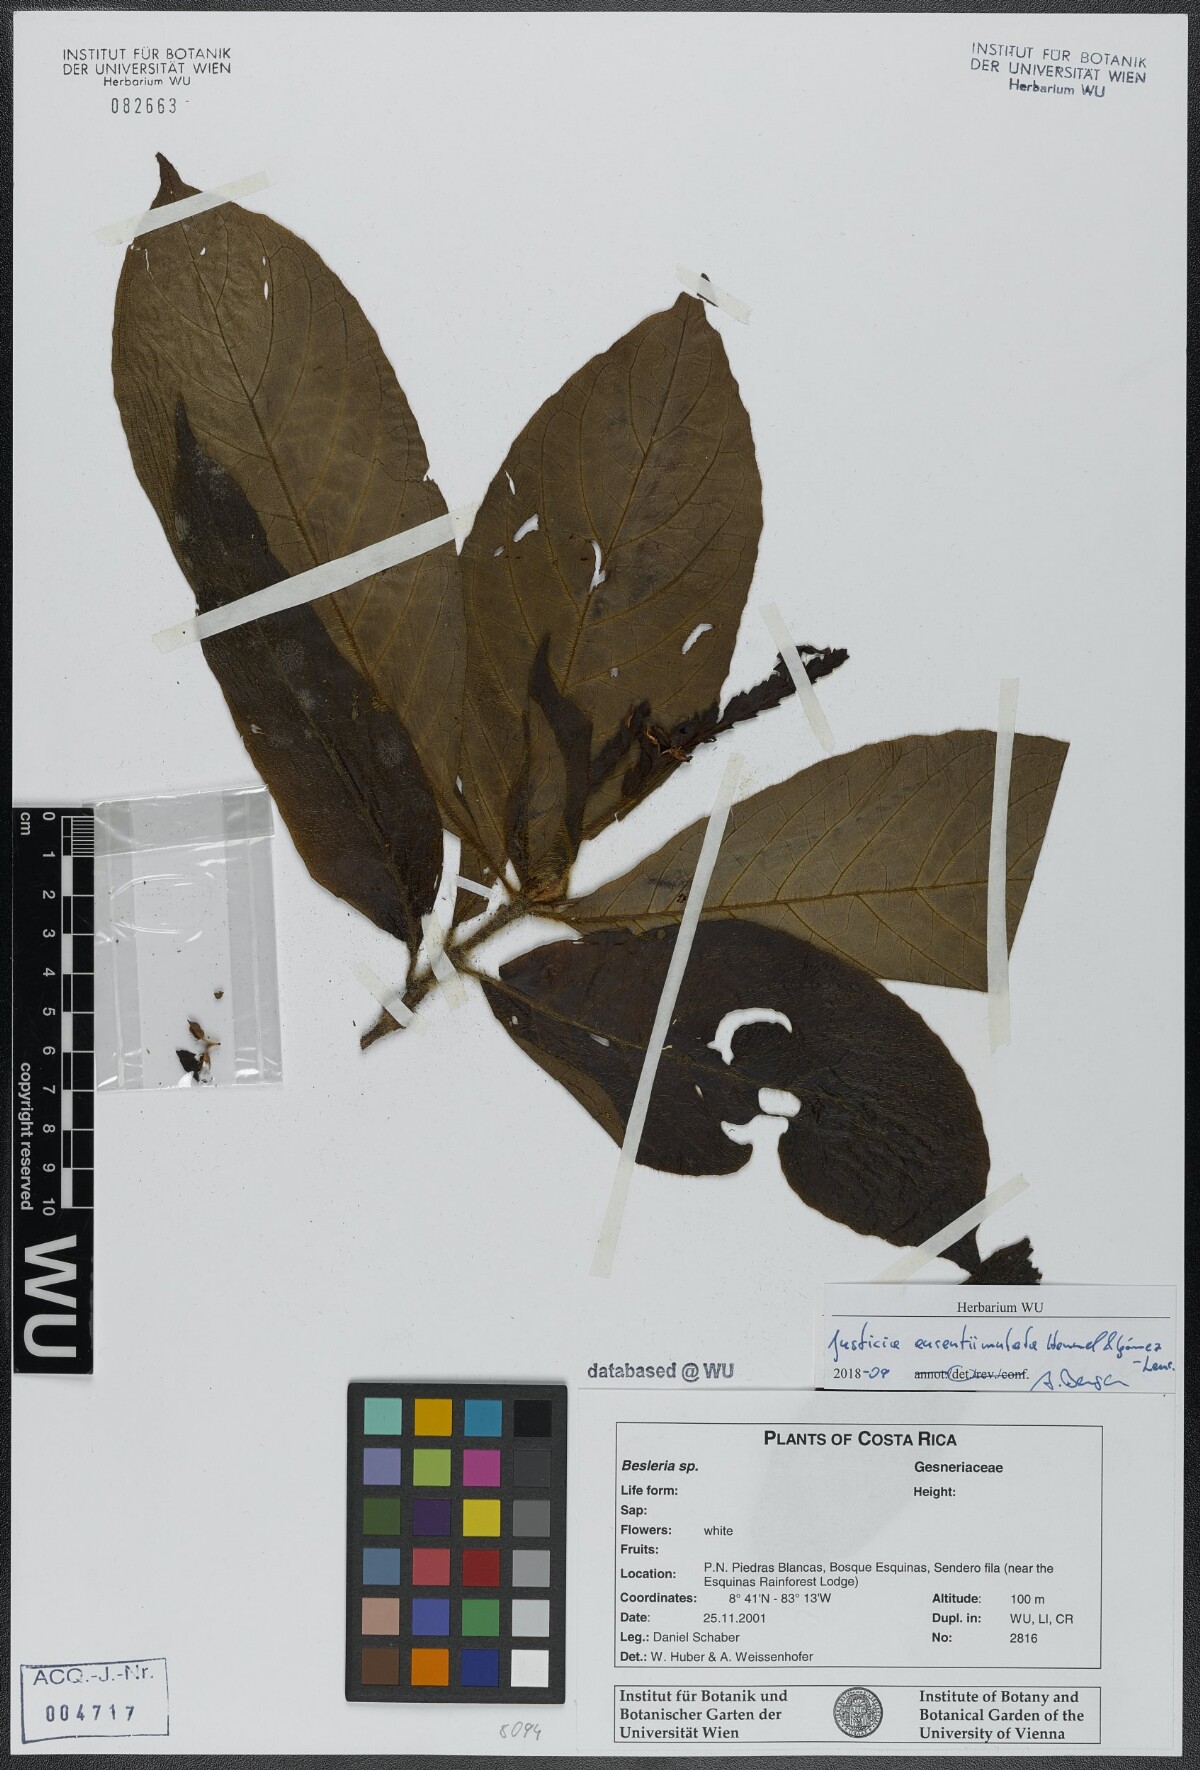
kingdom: Plantae
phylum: Tracheophyta
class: Magnoliopsida
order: Lamiales
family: Acanthaceae
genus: Justicia
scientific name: Justicia aurantiimutata
